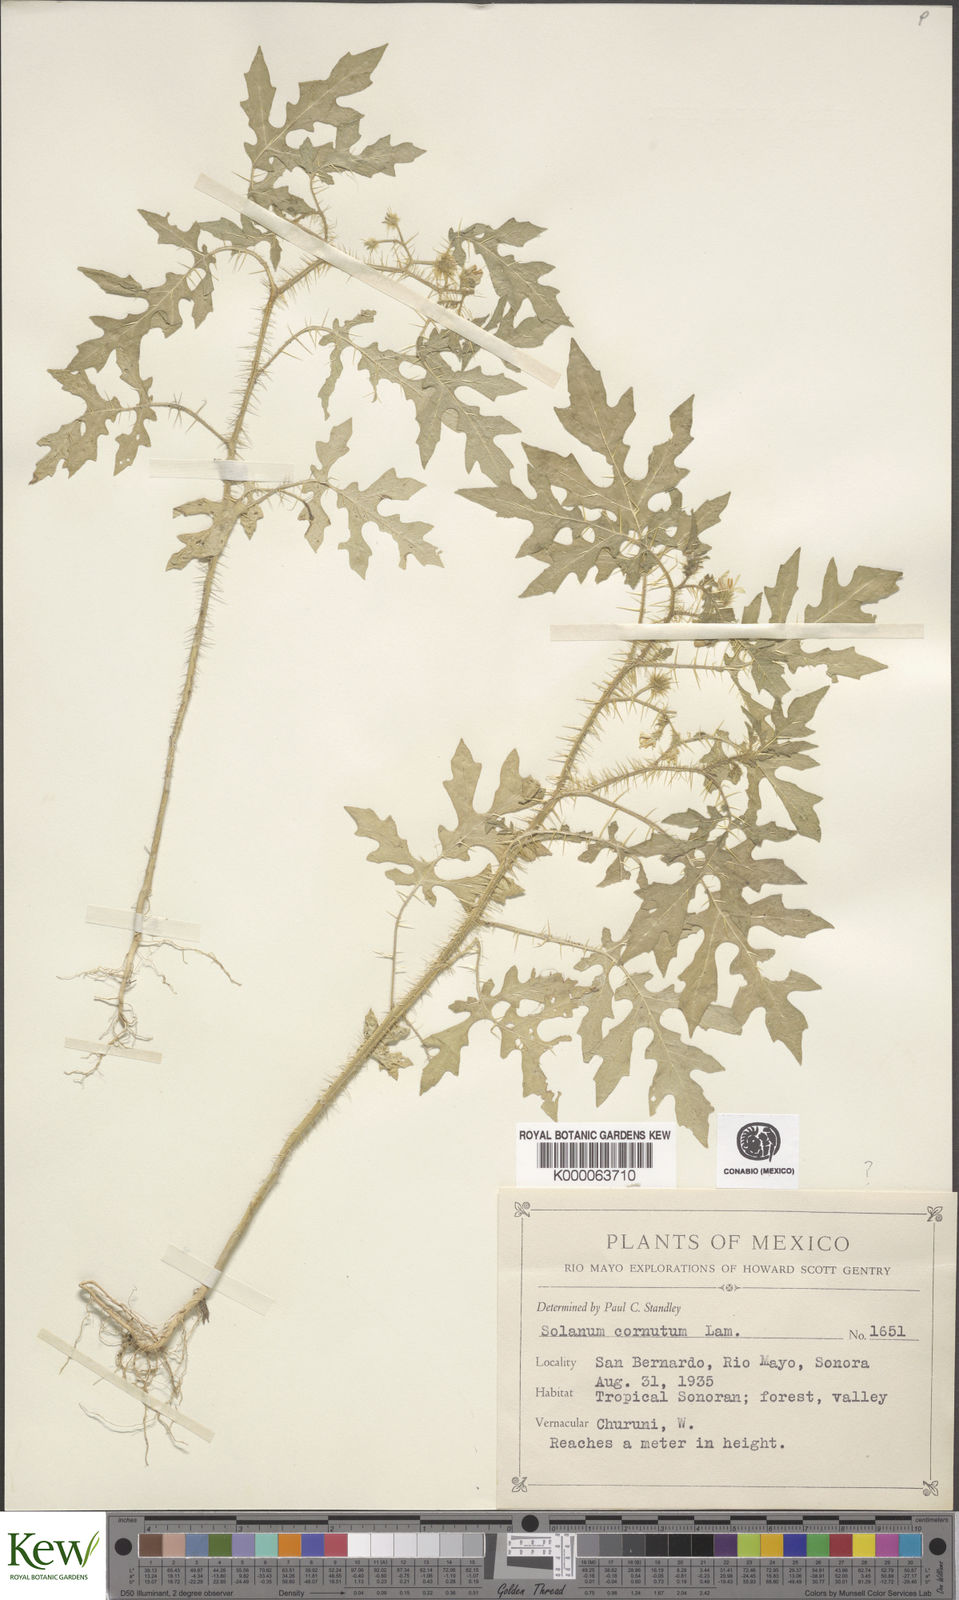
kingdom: Plantae
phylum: Tracheophyta
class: Magnoliopsida
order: Solanales
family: Solanaceae
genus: Solanum
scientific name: Solanum grayi
